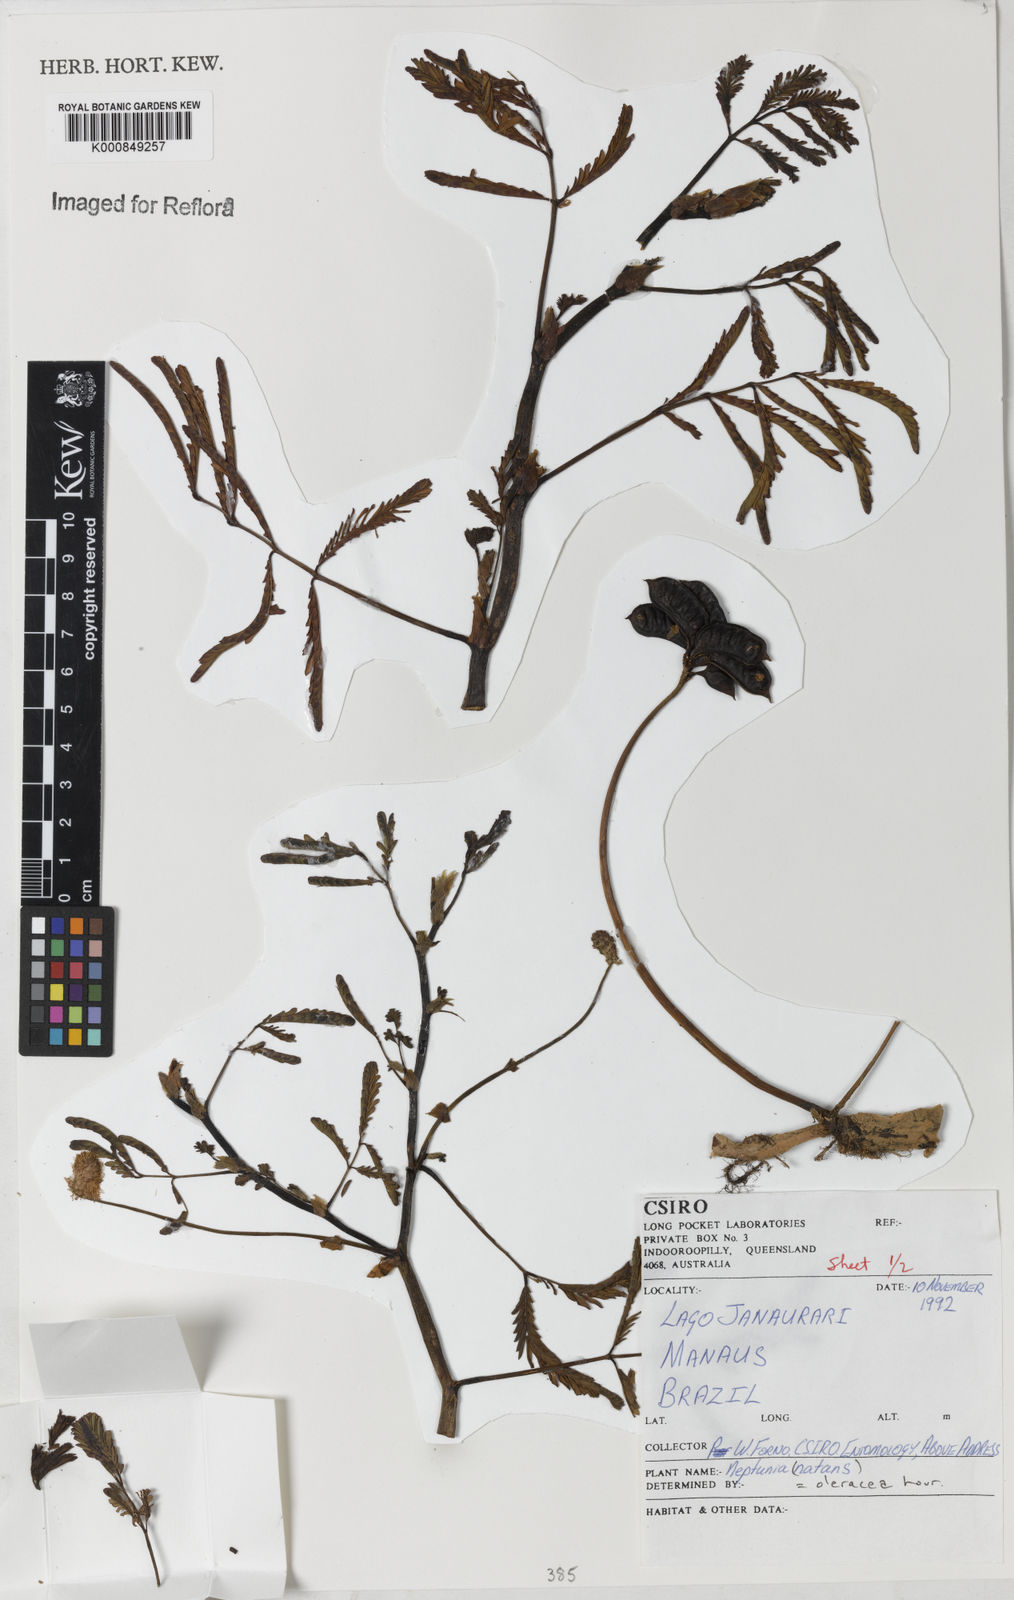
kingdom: Plantae
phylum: Tracheophyta
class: Magnoliopsida
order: Fabales
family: Fabaceae
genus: Neptunia
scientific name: Neptunia prostrata
